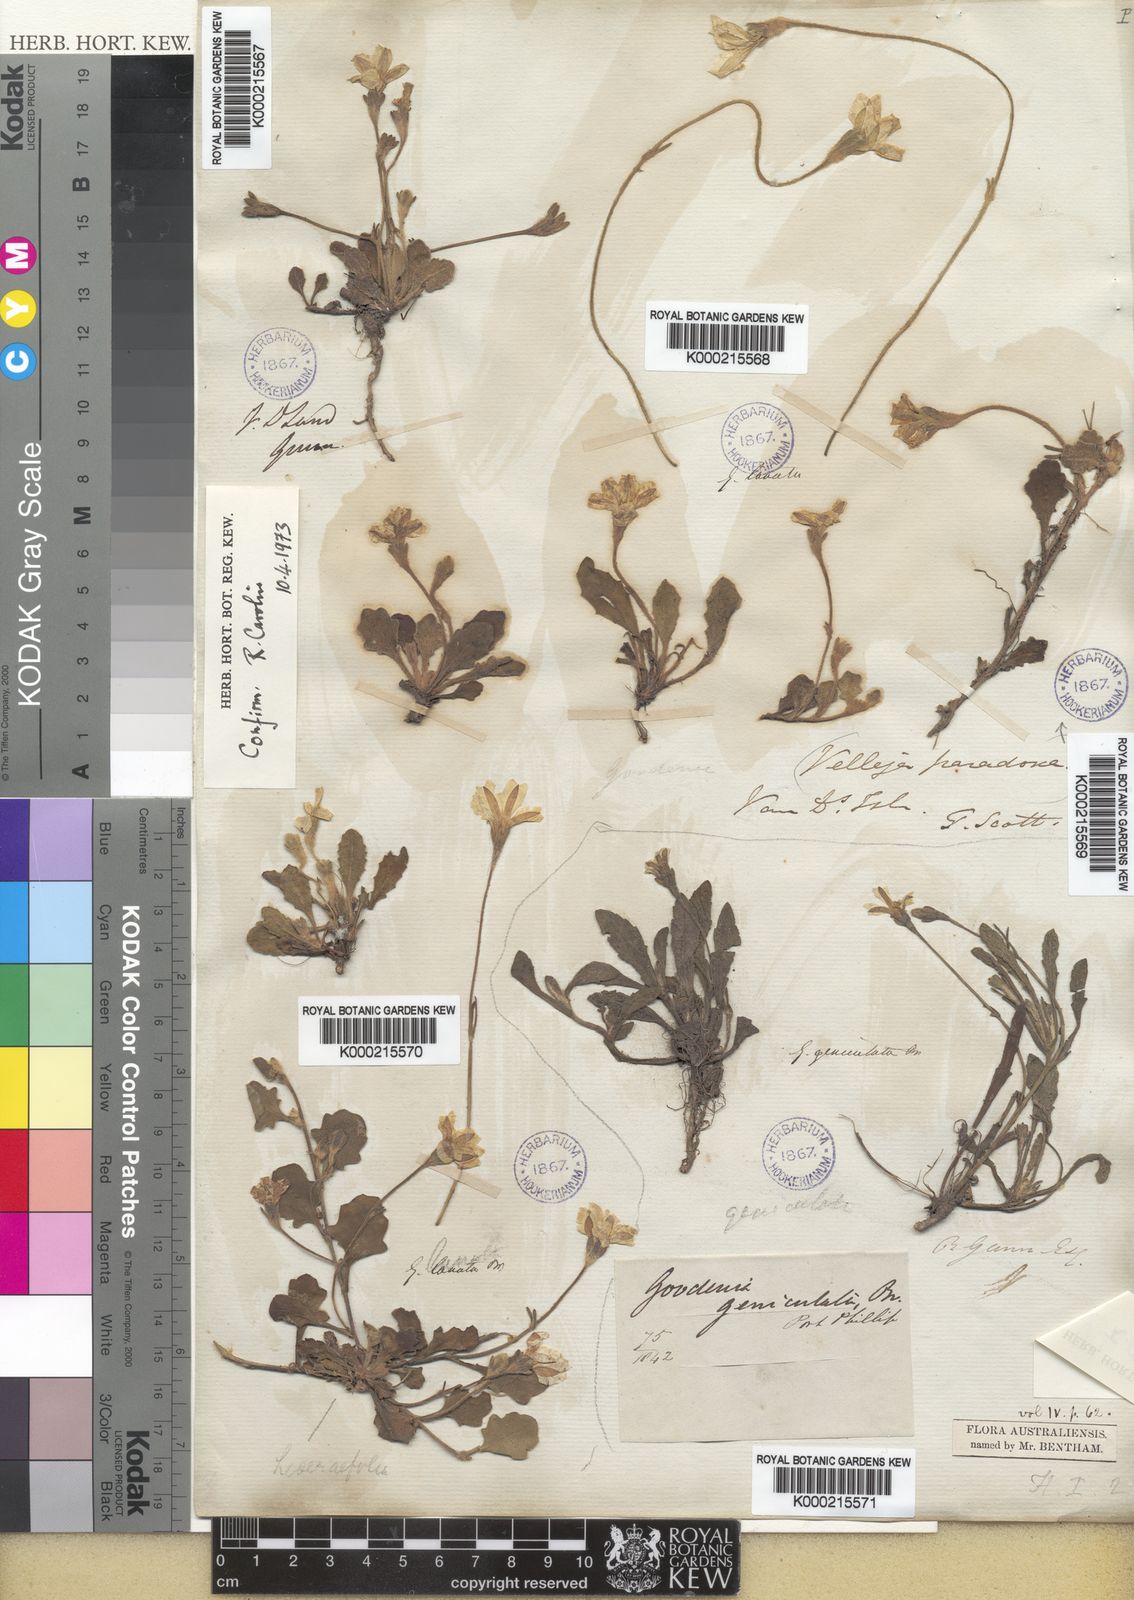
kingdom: Plantae
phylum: Tracheophyta
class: Magnoliopsida
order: Asterales
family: Goodeniaceae
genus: Goodenia
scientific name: Goodenia lanata
